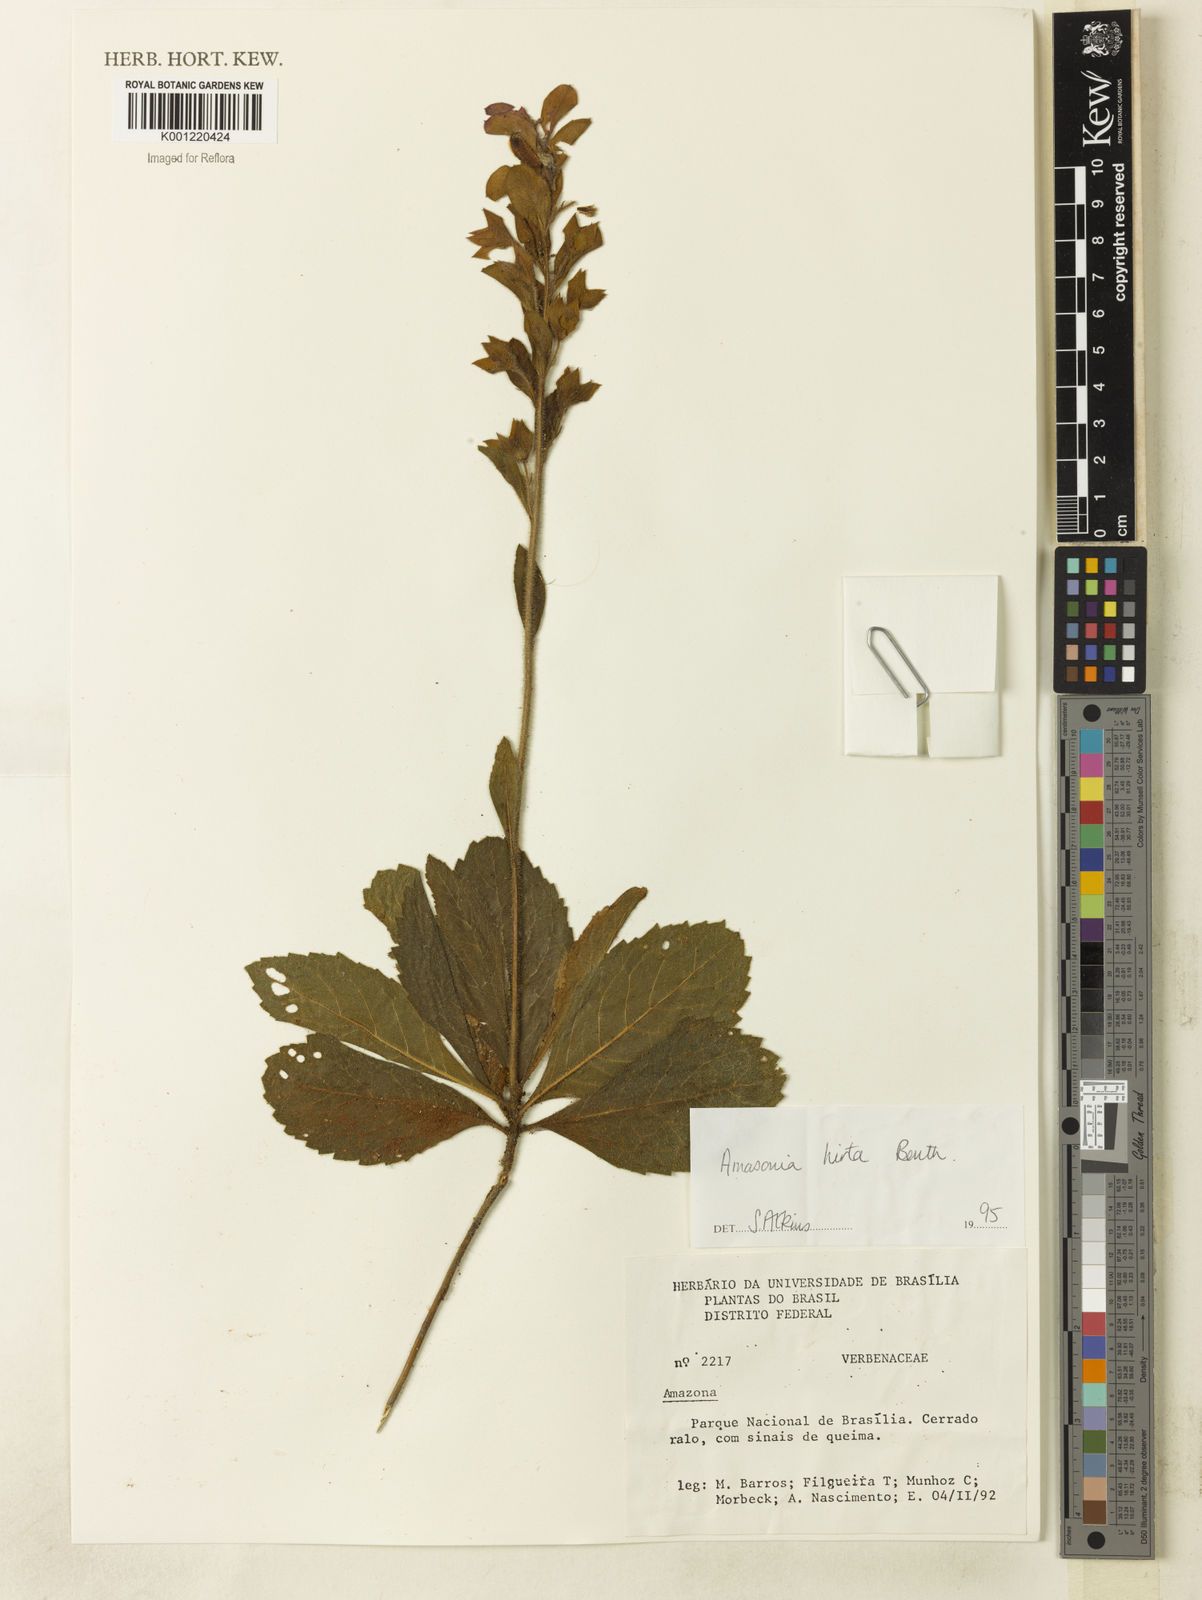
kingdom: Plantae
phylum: Tracheophyta
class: Magnoliopsida
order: Lamiales
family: Lamiaceae
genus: Amasonia
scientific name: Amasonia hirta
